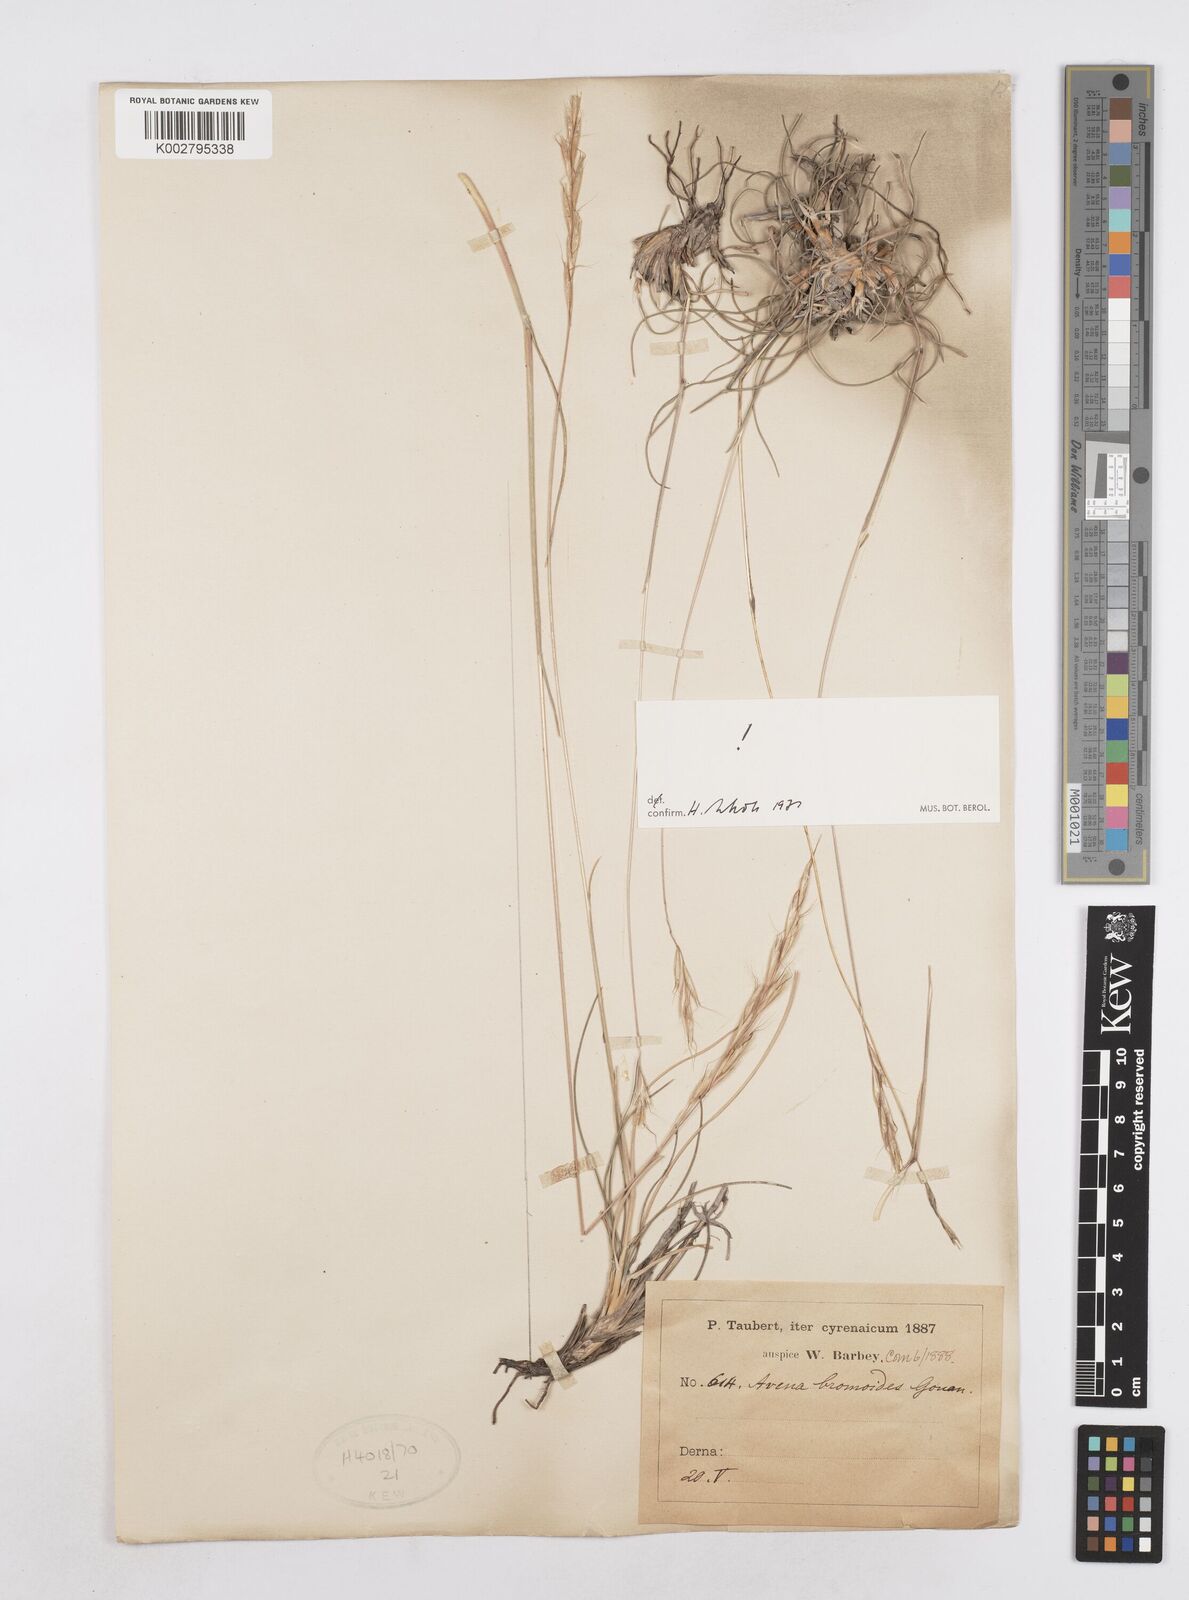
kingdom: Plantae
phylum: Tracheophyta
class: Liliopsida
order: Poales
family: Poaceae
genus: Helictochloa
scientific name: Helictochloa bromoides
